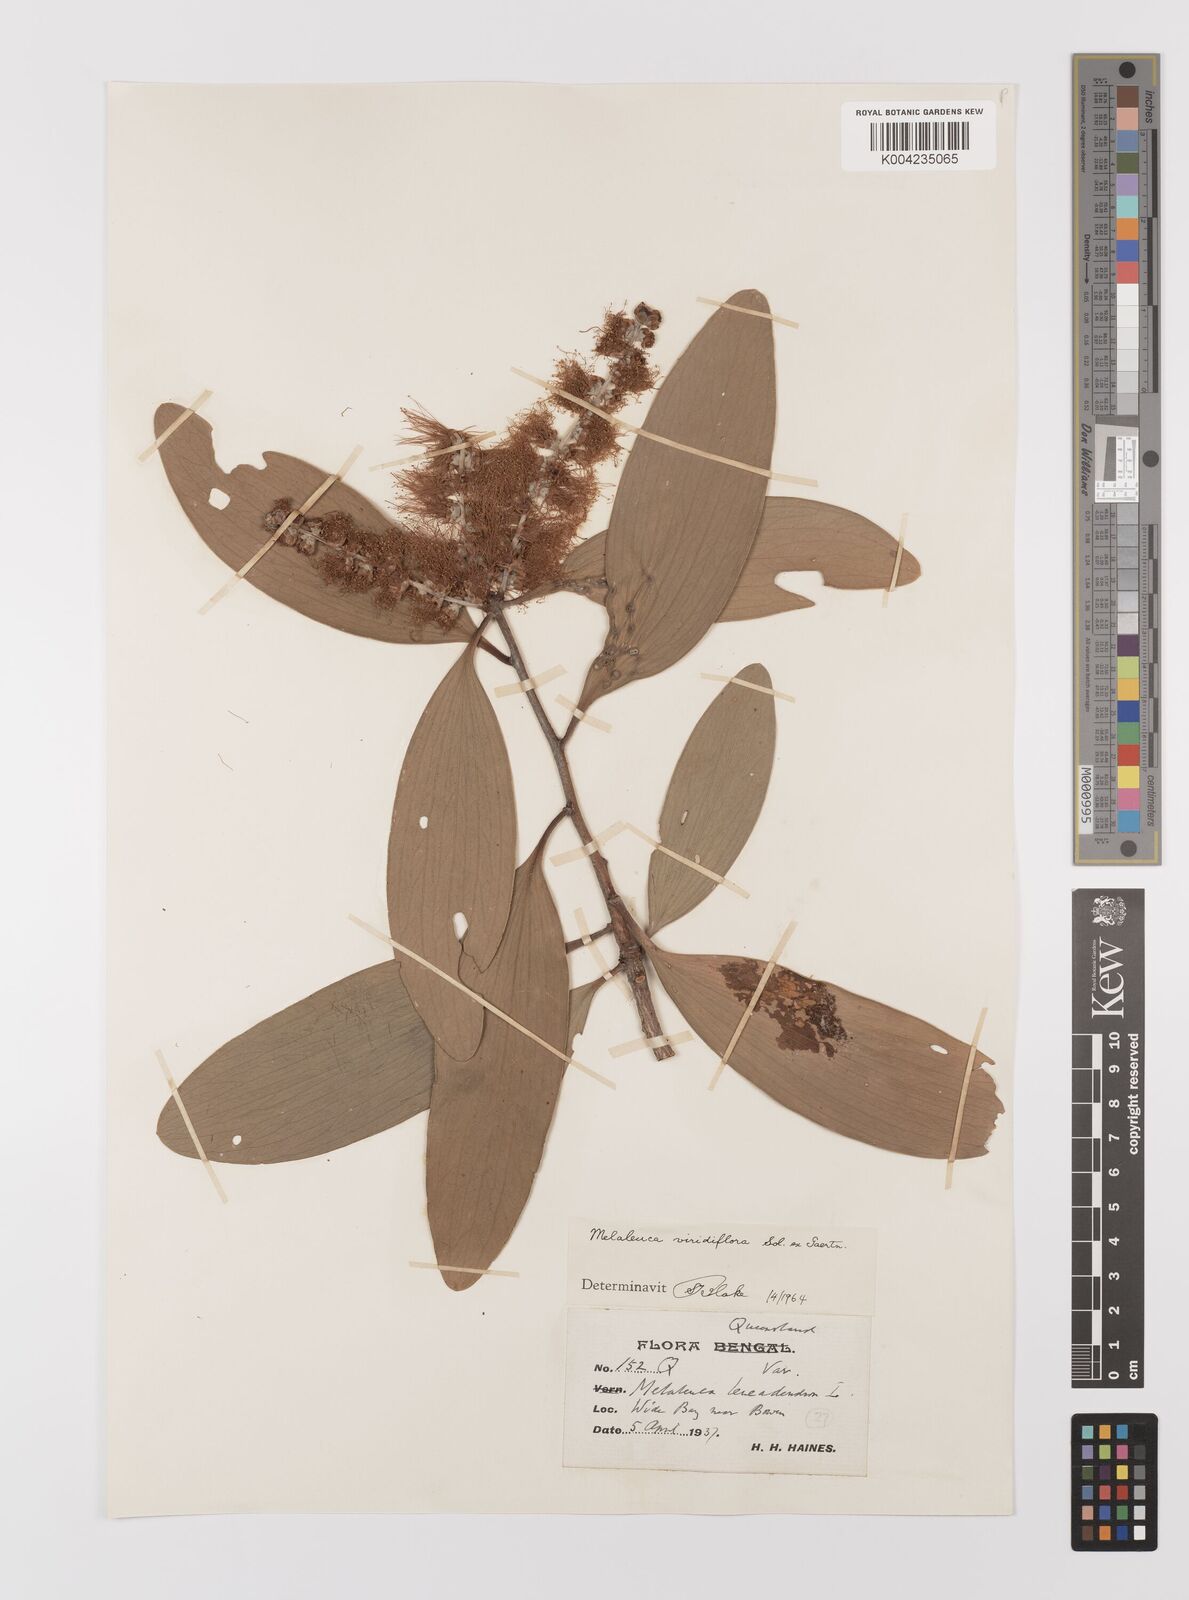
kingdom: Plantae
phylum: Tracheophyta
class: Magnoliopsida
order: Myrtales
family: Myrtaceae
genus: Melaleuca
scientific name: Melaleuca viridiflora
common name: Brown-leaved paperbark
